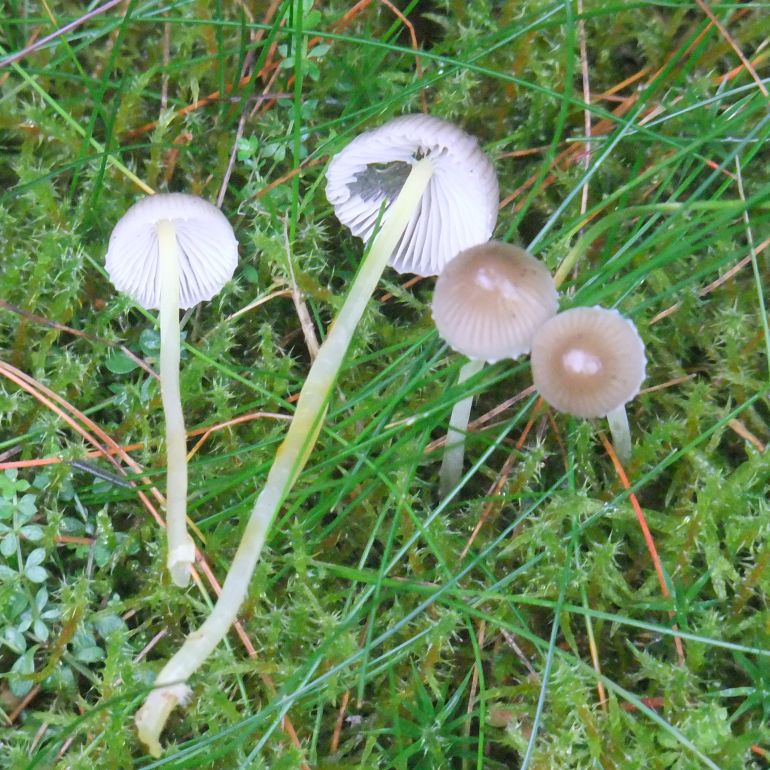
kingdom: Fungi
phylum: Basidiomycota
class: Agaricomycetes
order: Agaricales
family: Mycenaceae
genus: Mycena
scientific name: Mycena epipterygia
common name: gulstokket huesvamp
